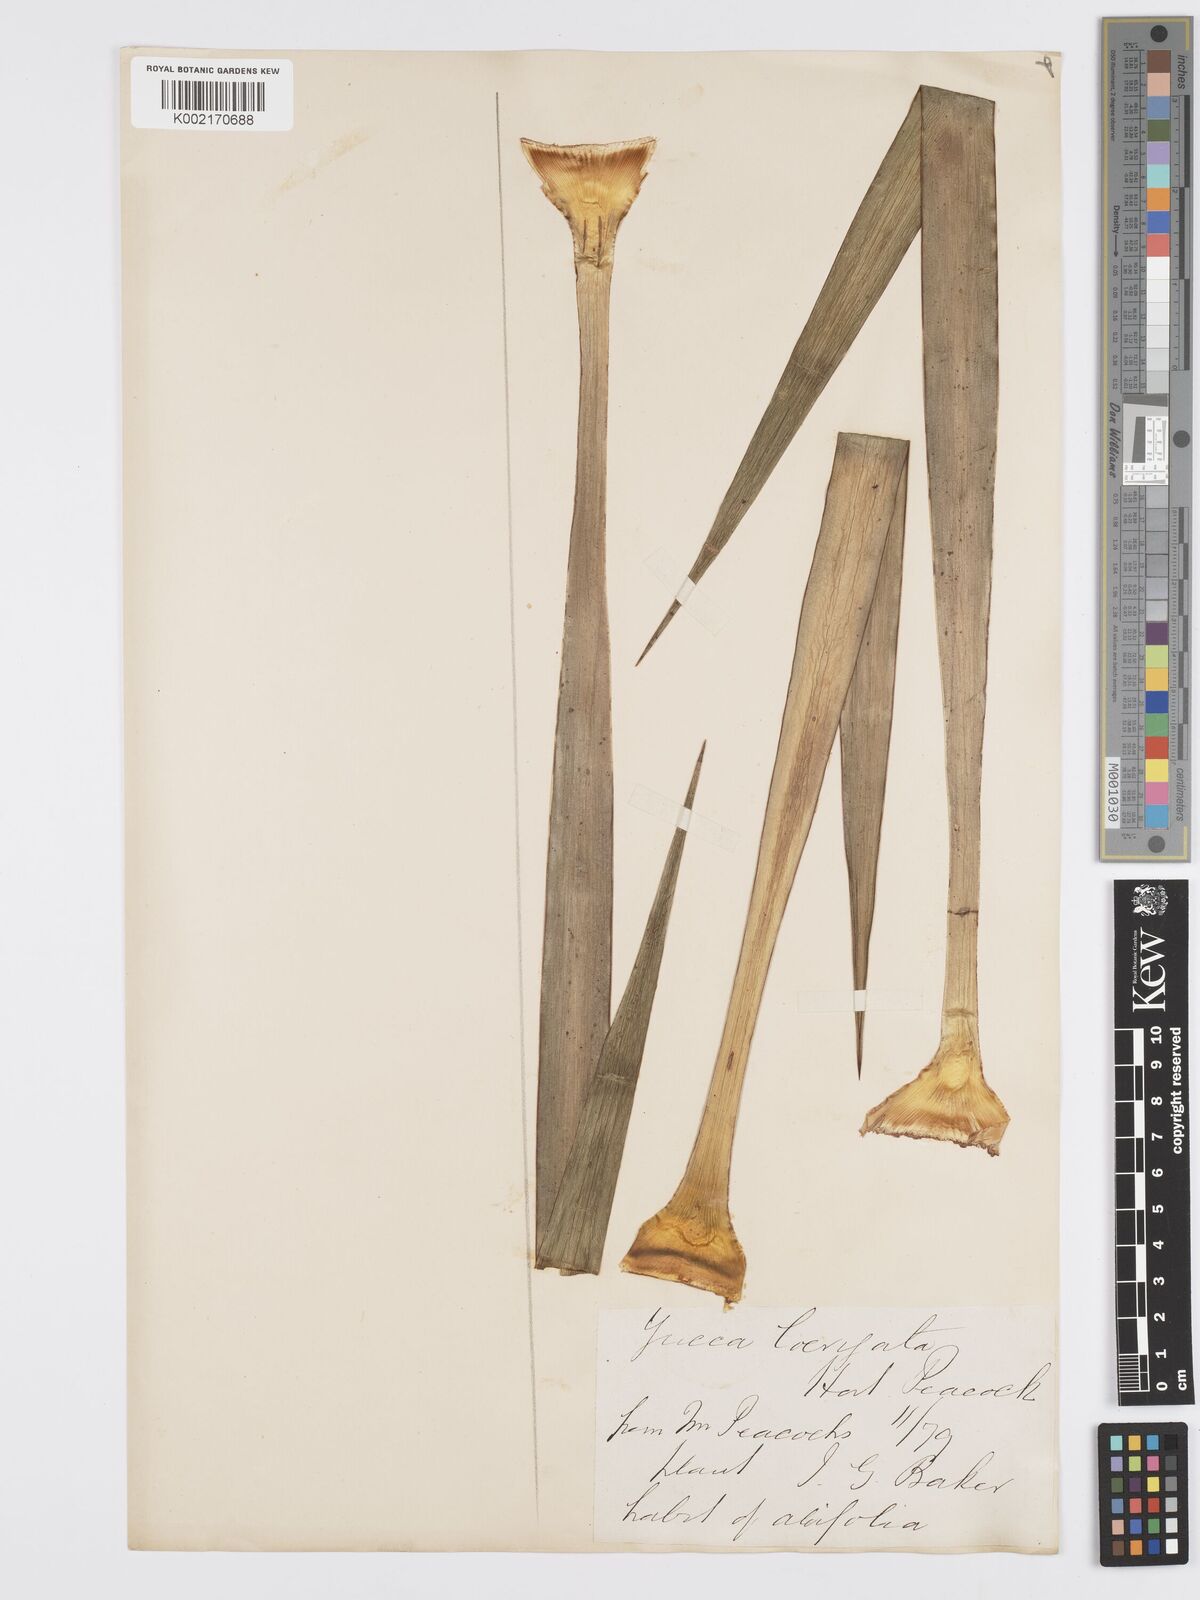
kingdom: Plantae
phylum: Tracheophyta
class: Liliopsida
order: Asparagales
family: Asparagaceae
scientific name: Asparagaceae
